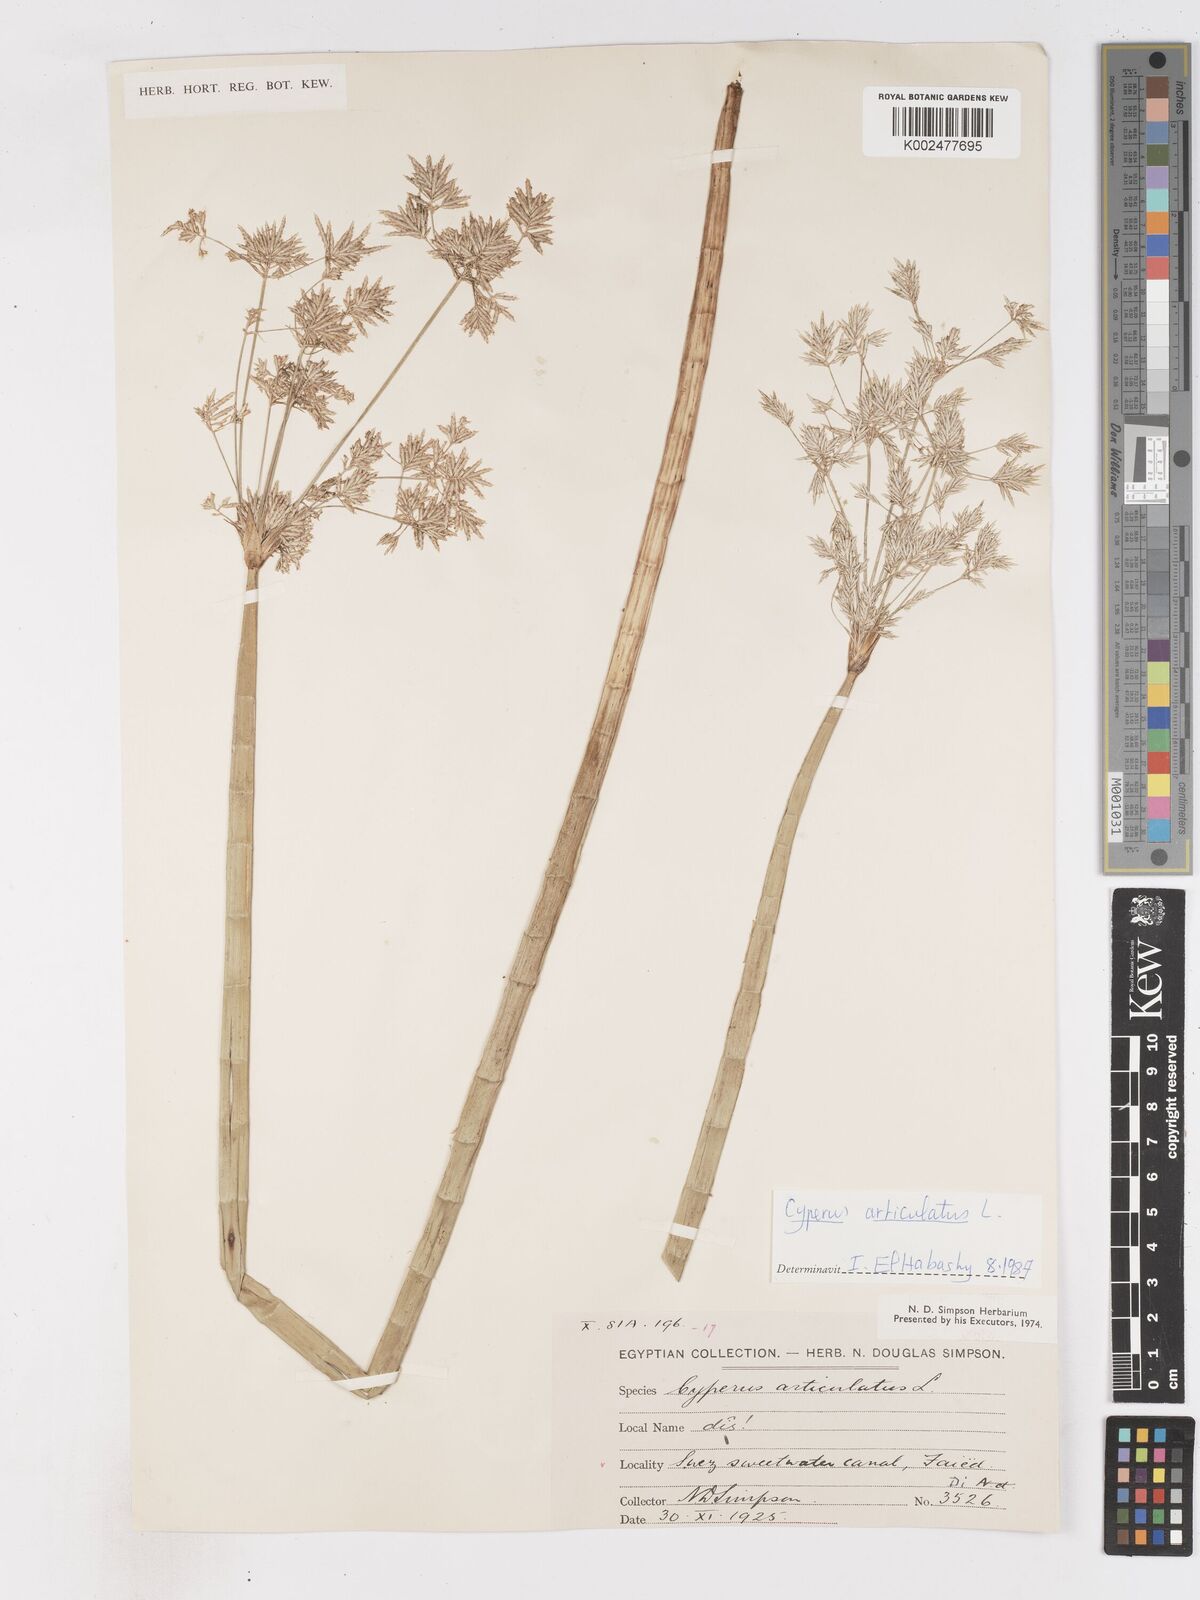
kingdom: Plantae
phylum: Tracheophyta
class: Liliopsida
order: Poales
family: Cyperaceae
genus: Cyperus
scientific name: Cyperus articulatus
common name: Jointed flatsedge
